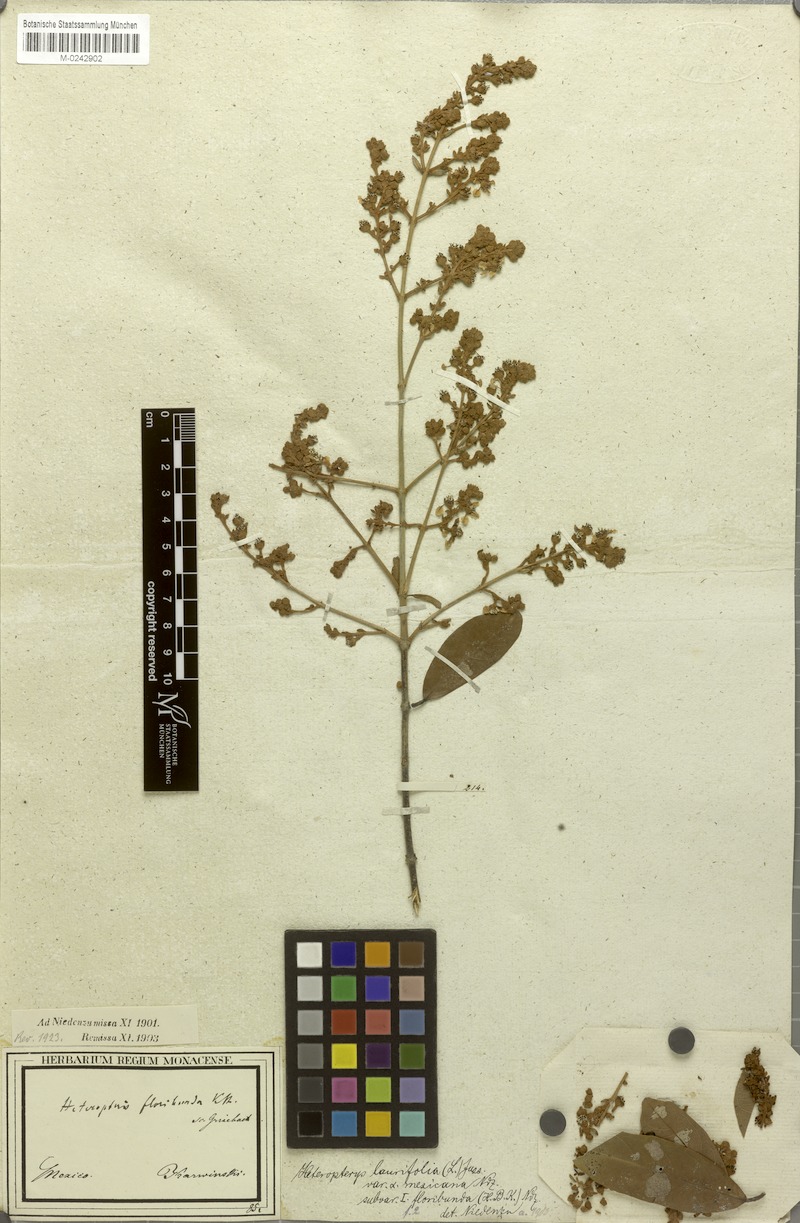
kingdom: Plantae
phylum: Tracheophyta
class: Magnoliopsida
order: Malpighiales
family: Malpighiaceae
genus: Heteropterys
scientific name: Heteropterys laurifolia
